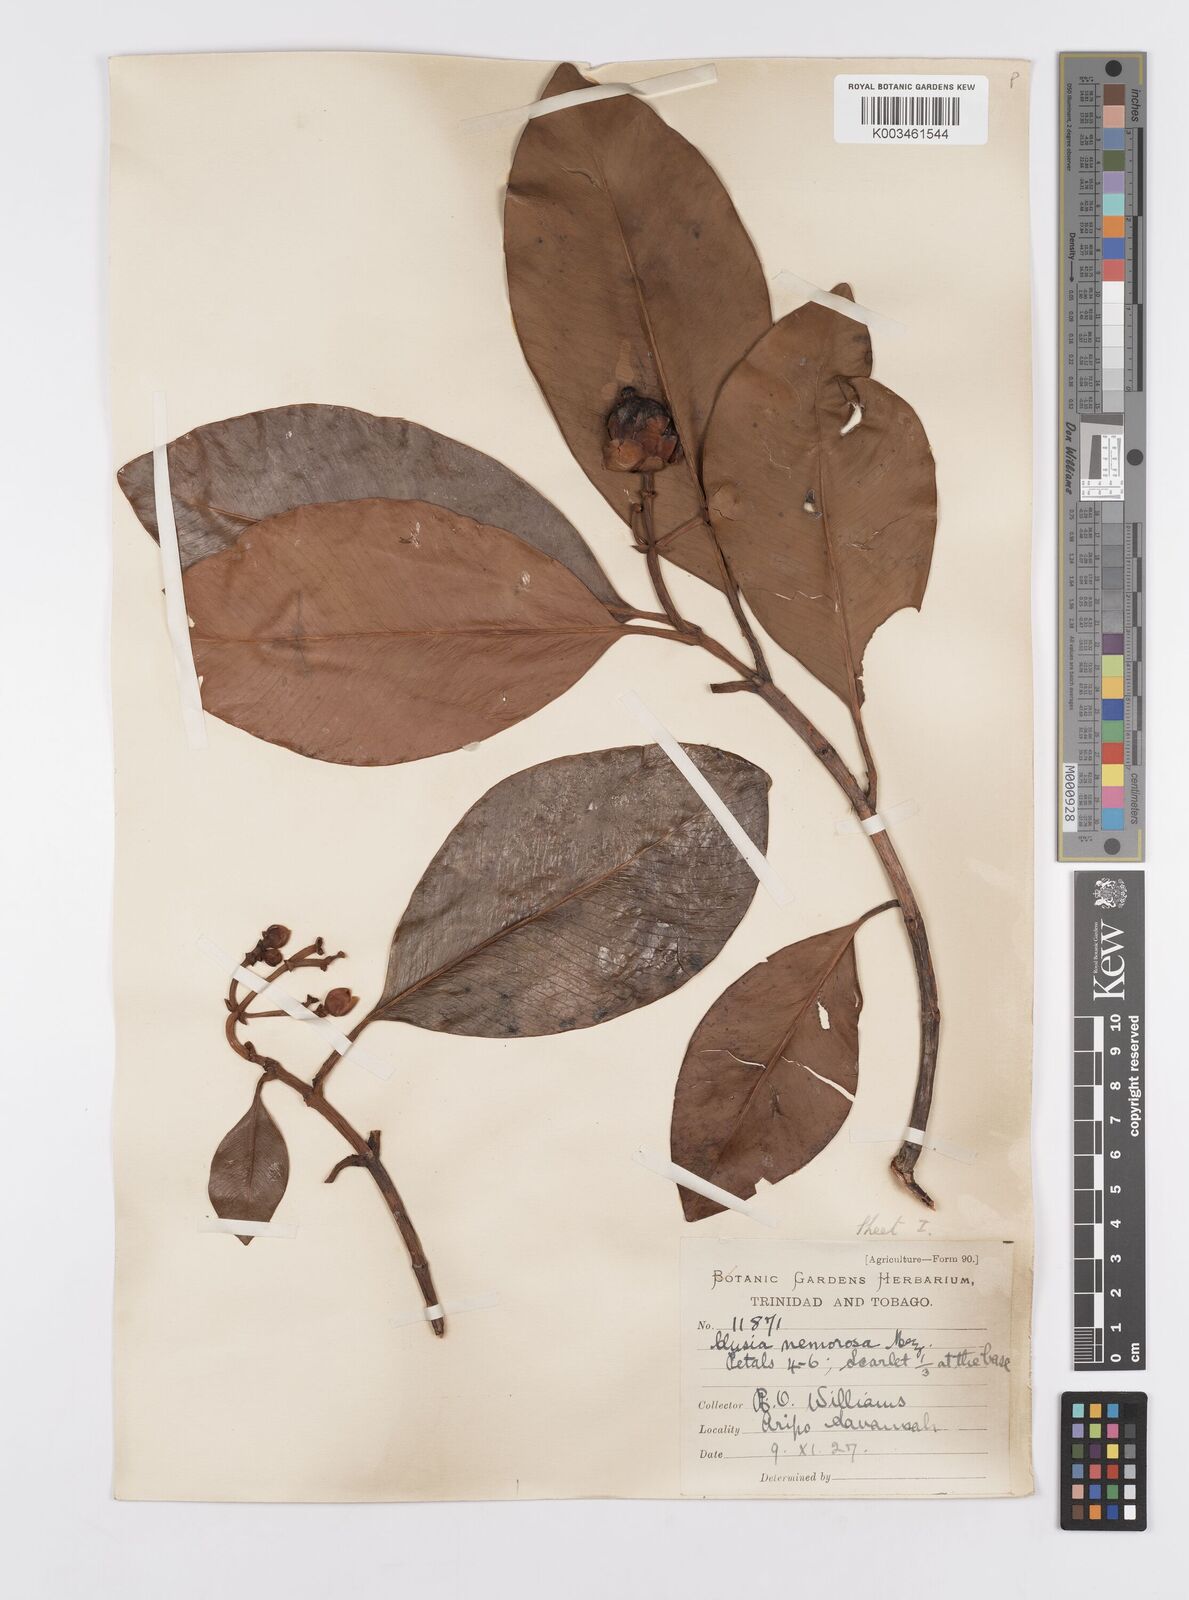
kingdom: Plantae
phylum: Tracheophyta
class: Magnoliopsida
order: Malpighiales
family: Clusiaceae
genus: Clusia
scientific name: Clusia nemorosa
